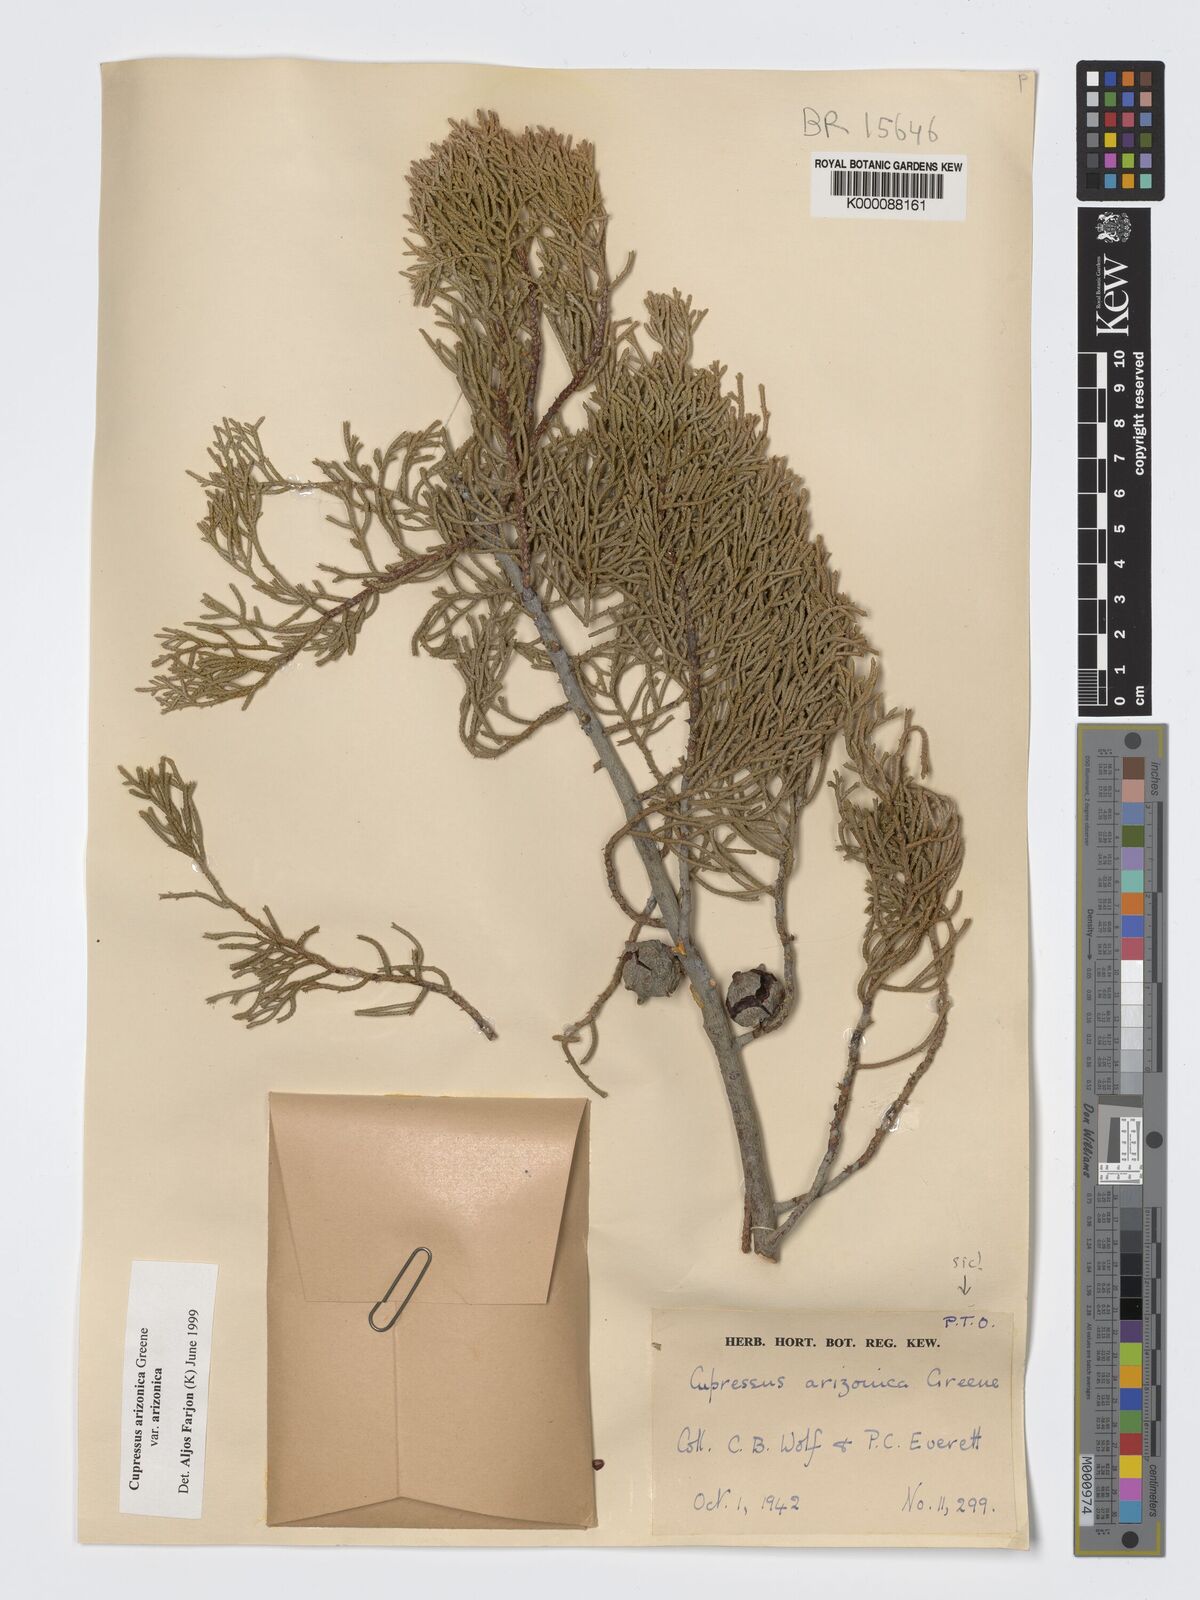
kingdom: Plantae
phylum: Tracheophyta
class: Pinopsida
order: Pinales
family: Cupressaceae
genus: Cupressus
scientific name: Cupressus arizonica
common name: Arizona cypress
